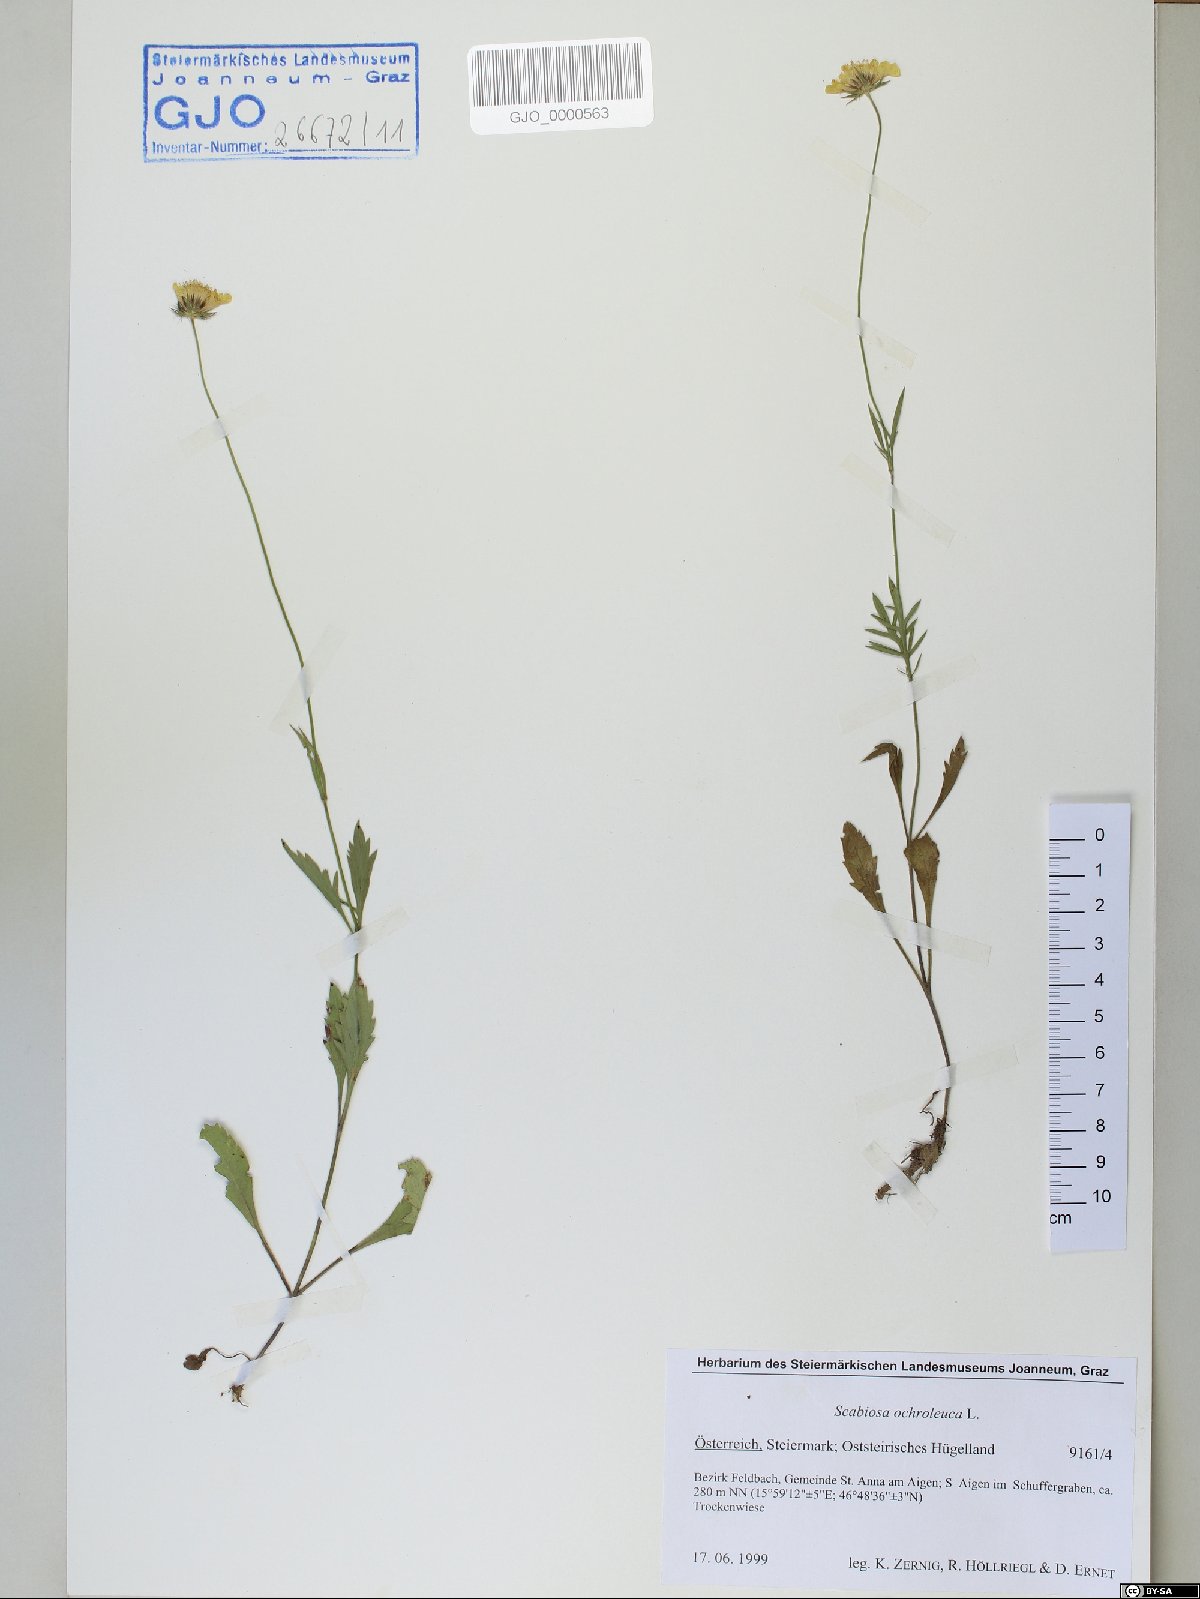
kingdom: Plantae
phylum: Tracheophyta
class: Magnoliopsida
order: Dipsacales
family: Caprifoliaceae
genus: Scabiosa
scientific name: Scabiosa ochroleuca
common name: Cream pincushions
